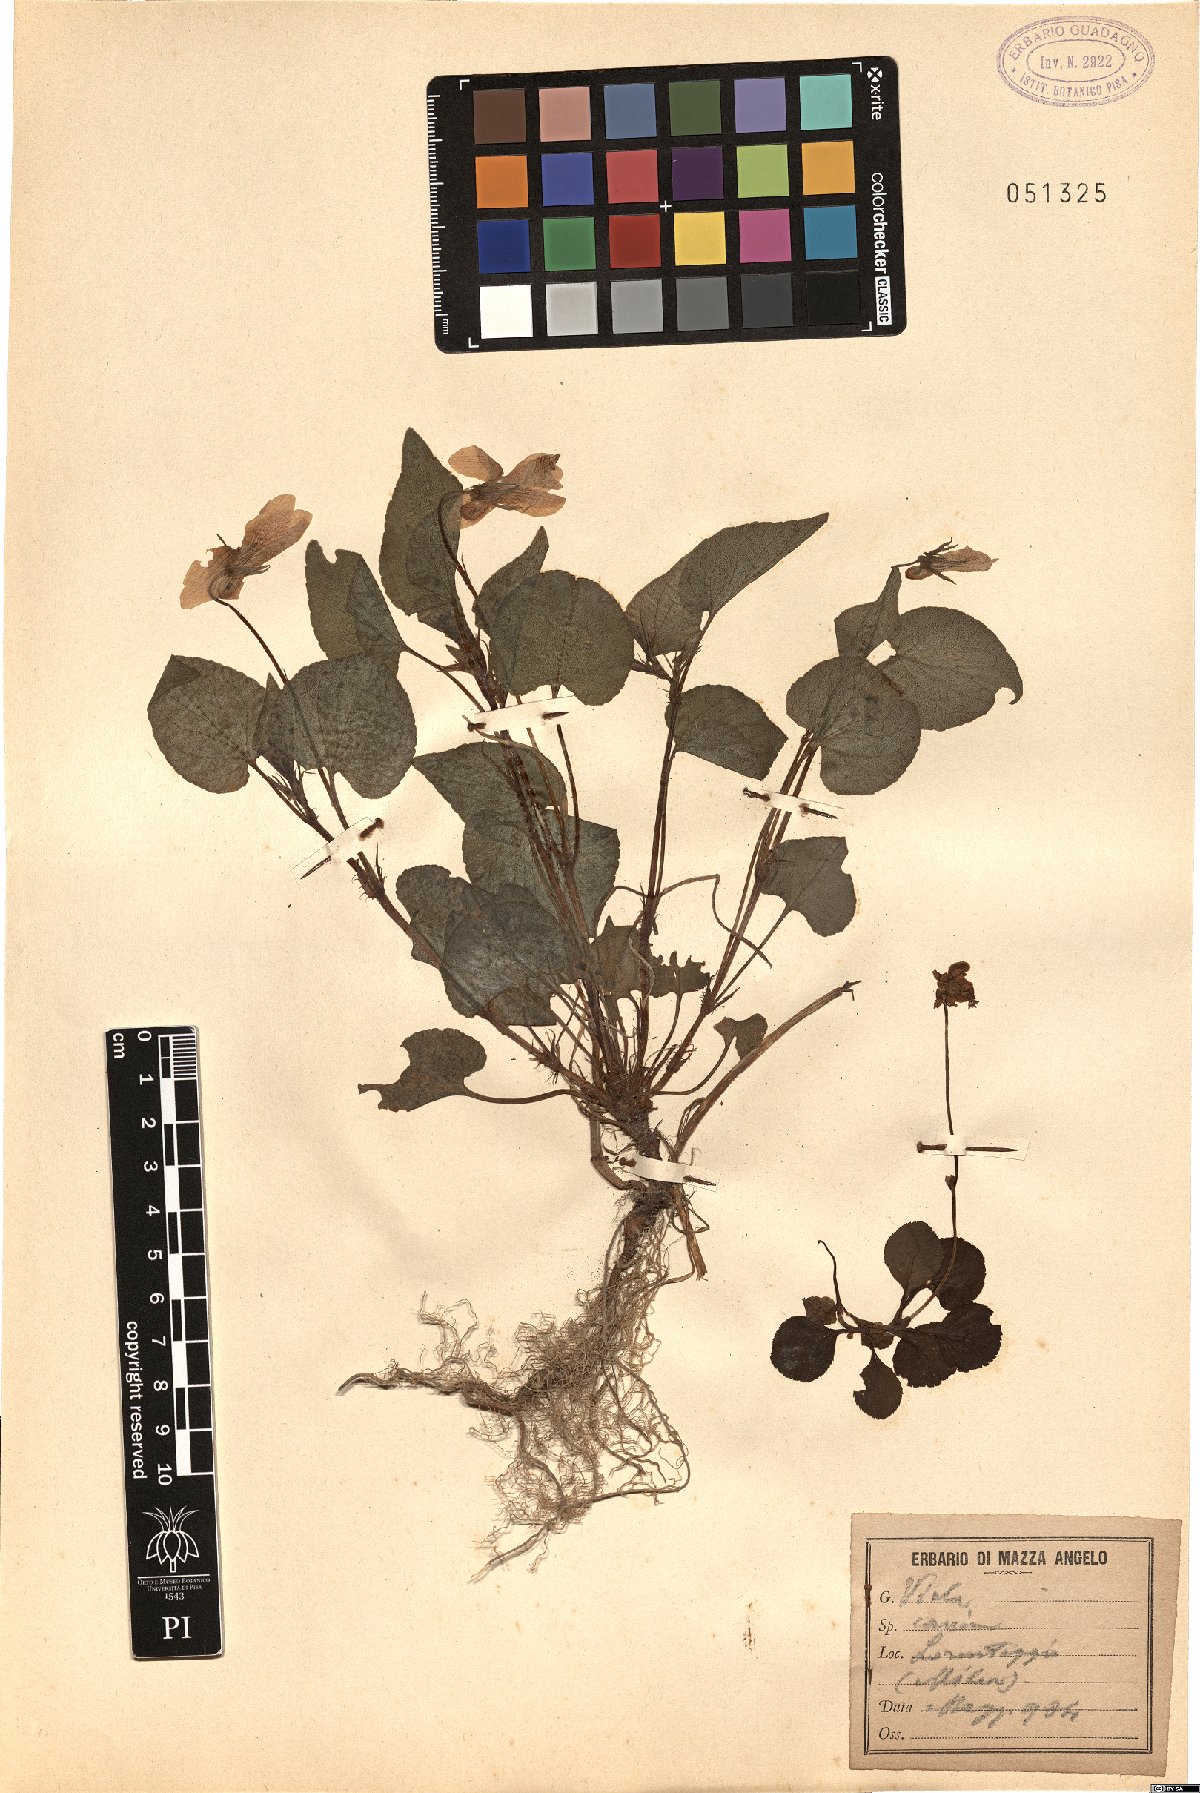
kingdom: Plantae
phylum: Tracheophyta
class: Magnoliopsida
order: Malpighiales
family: Violaceae
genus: Viola
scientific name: Viola canina
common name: Heath dog-violet
